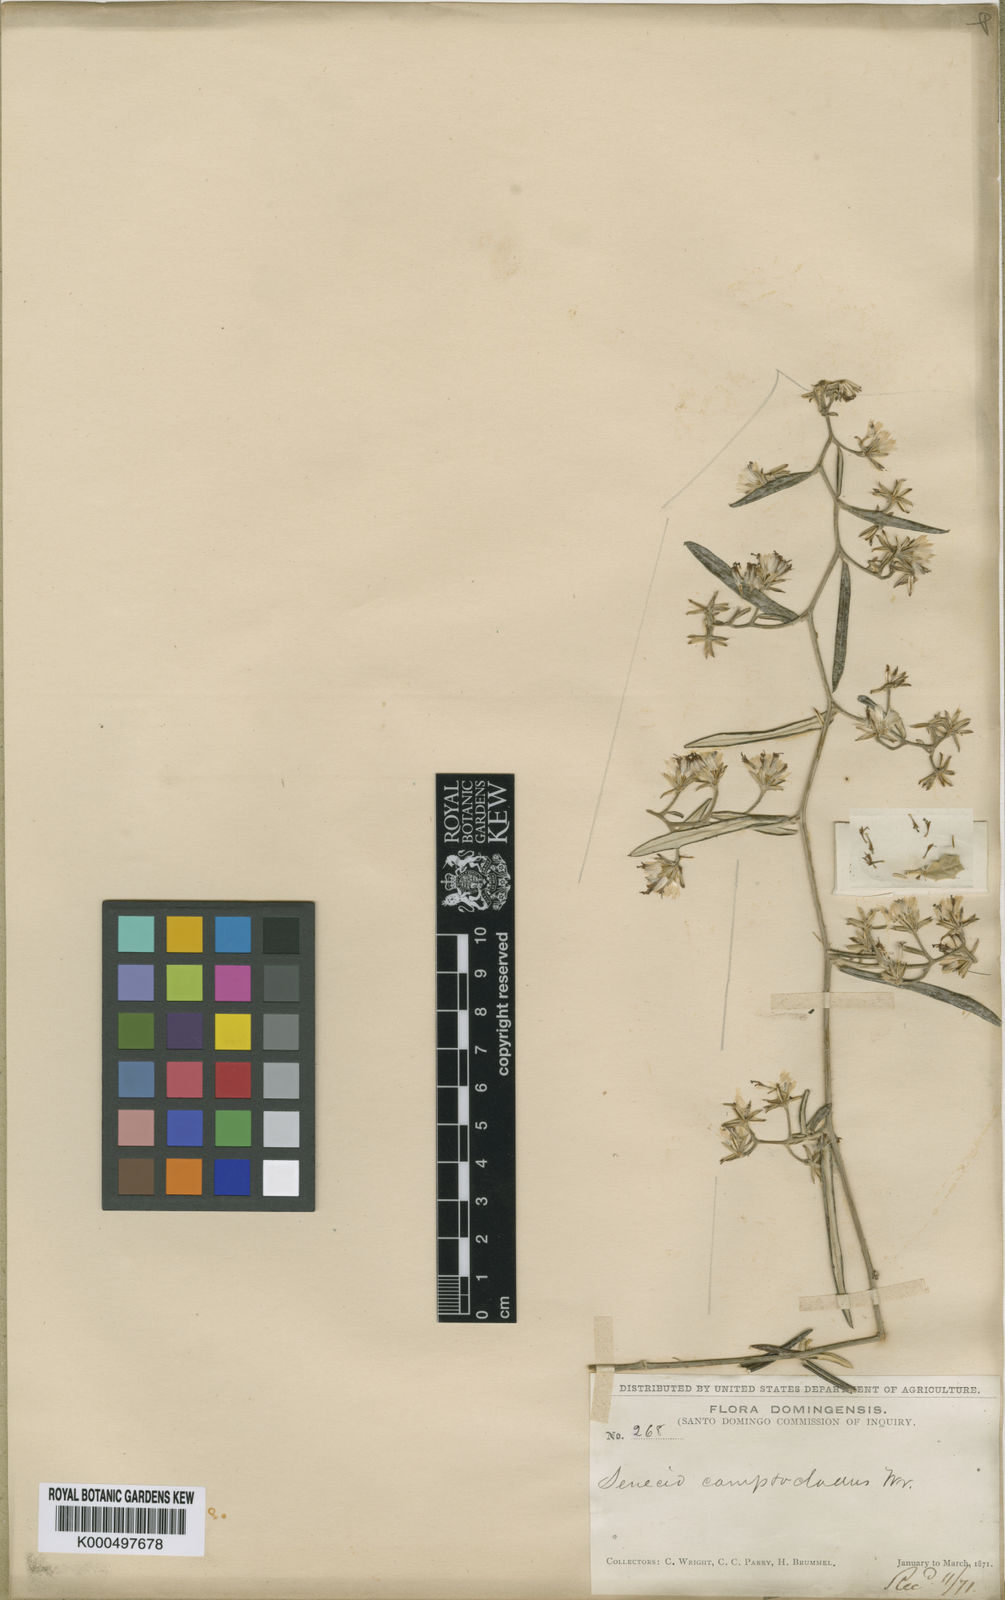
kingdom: Plantae
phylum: Tracheophyta
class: Magnoliopsida
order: Asterales
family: Asteraceae
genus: Elekmania
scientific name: Elekmania haitiensis
